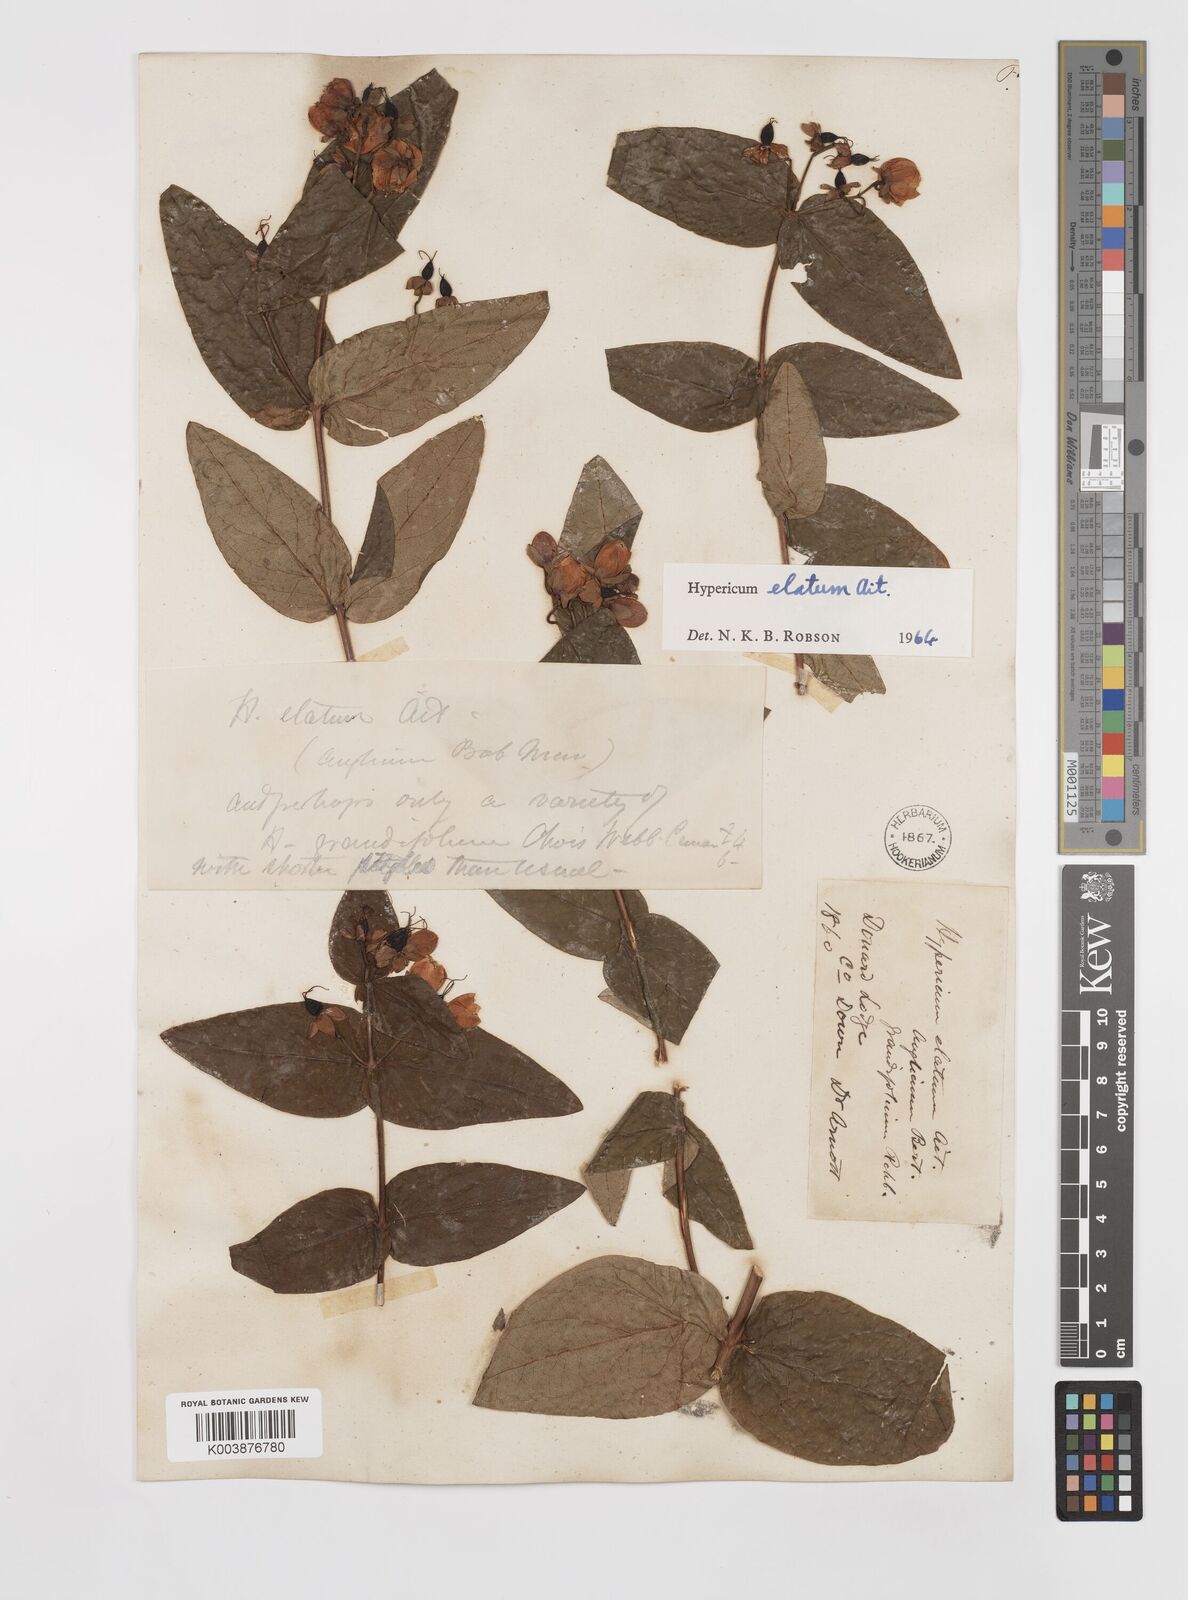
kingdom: Plantae
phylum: Tracheophyta
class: Magnoliopsida
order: Malpighiales
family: Hypericaceae
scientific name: Hypericaceae
